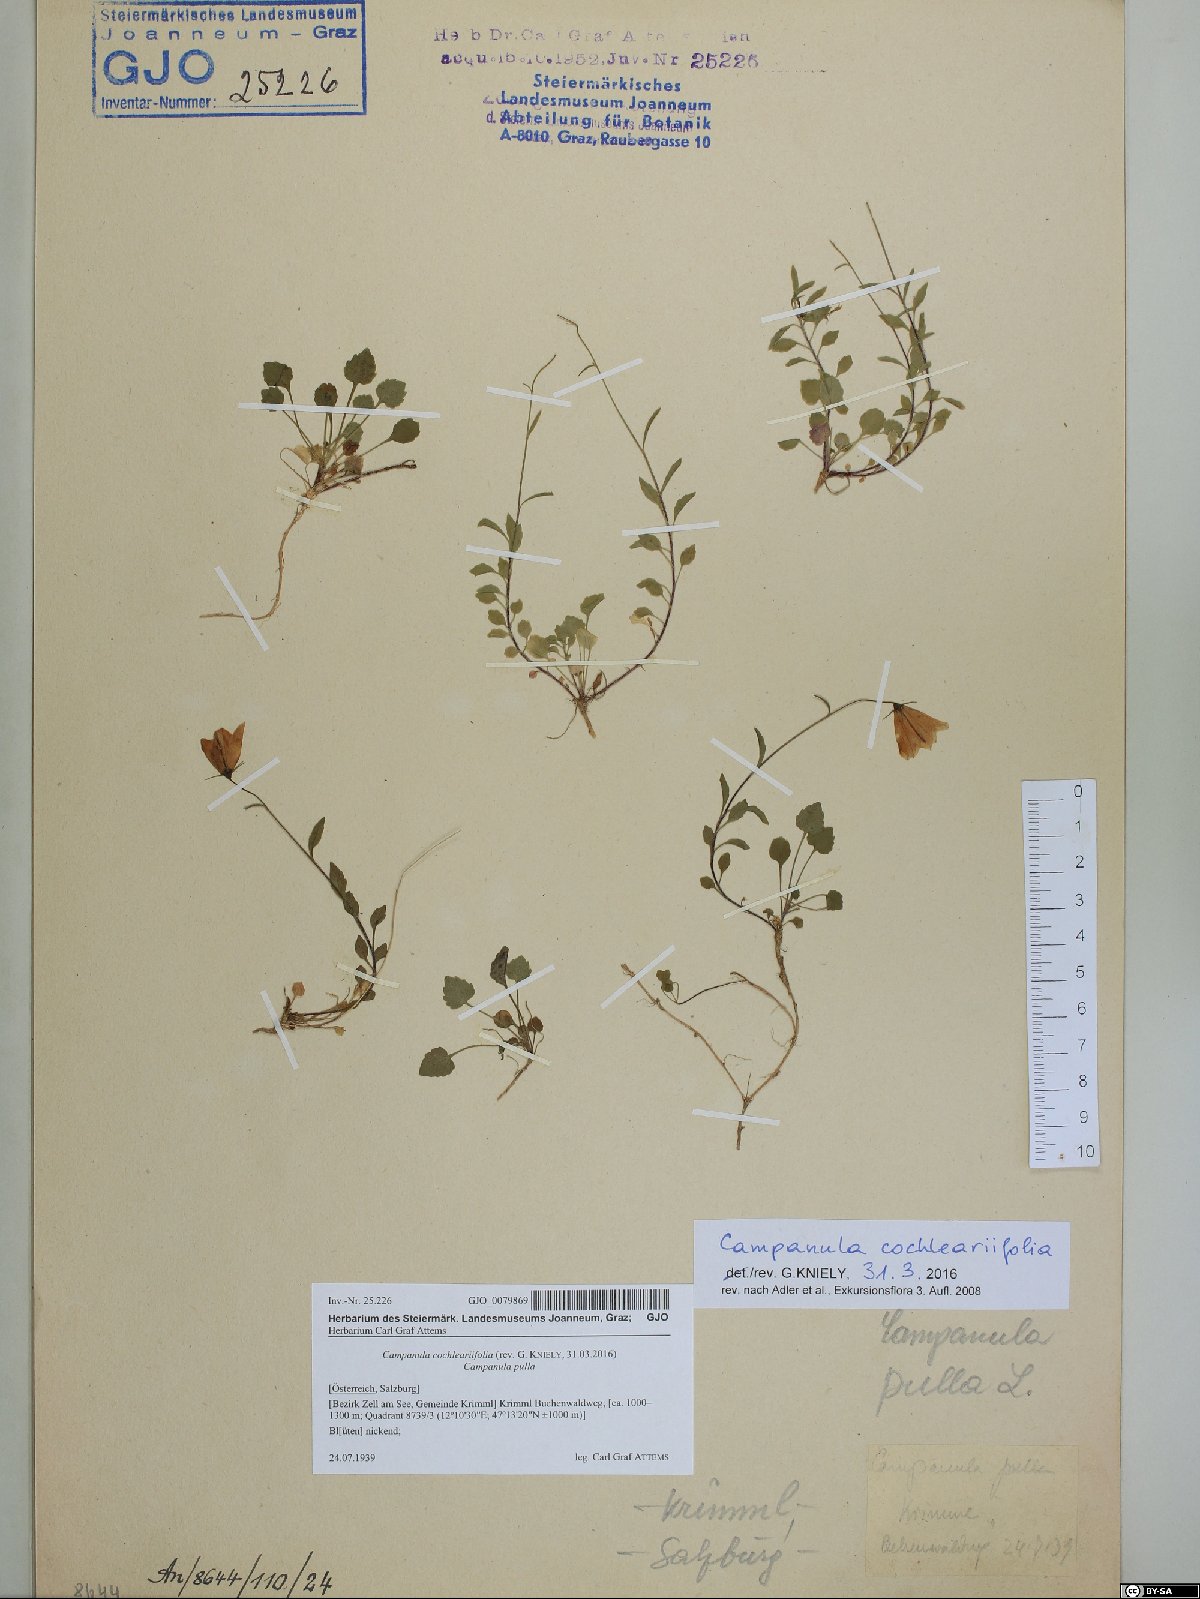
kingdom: Plantae
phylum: Tracheophyta
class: Magnoliopsida
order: Asterales
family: Campanulaceae
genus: Campanula
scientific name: Campanula cochleariifolia
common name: Fairies'-thimbles
